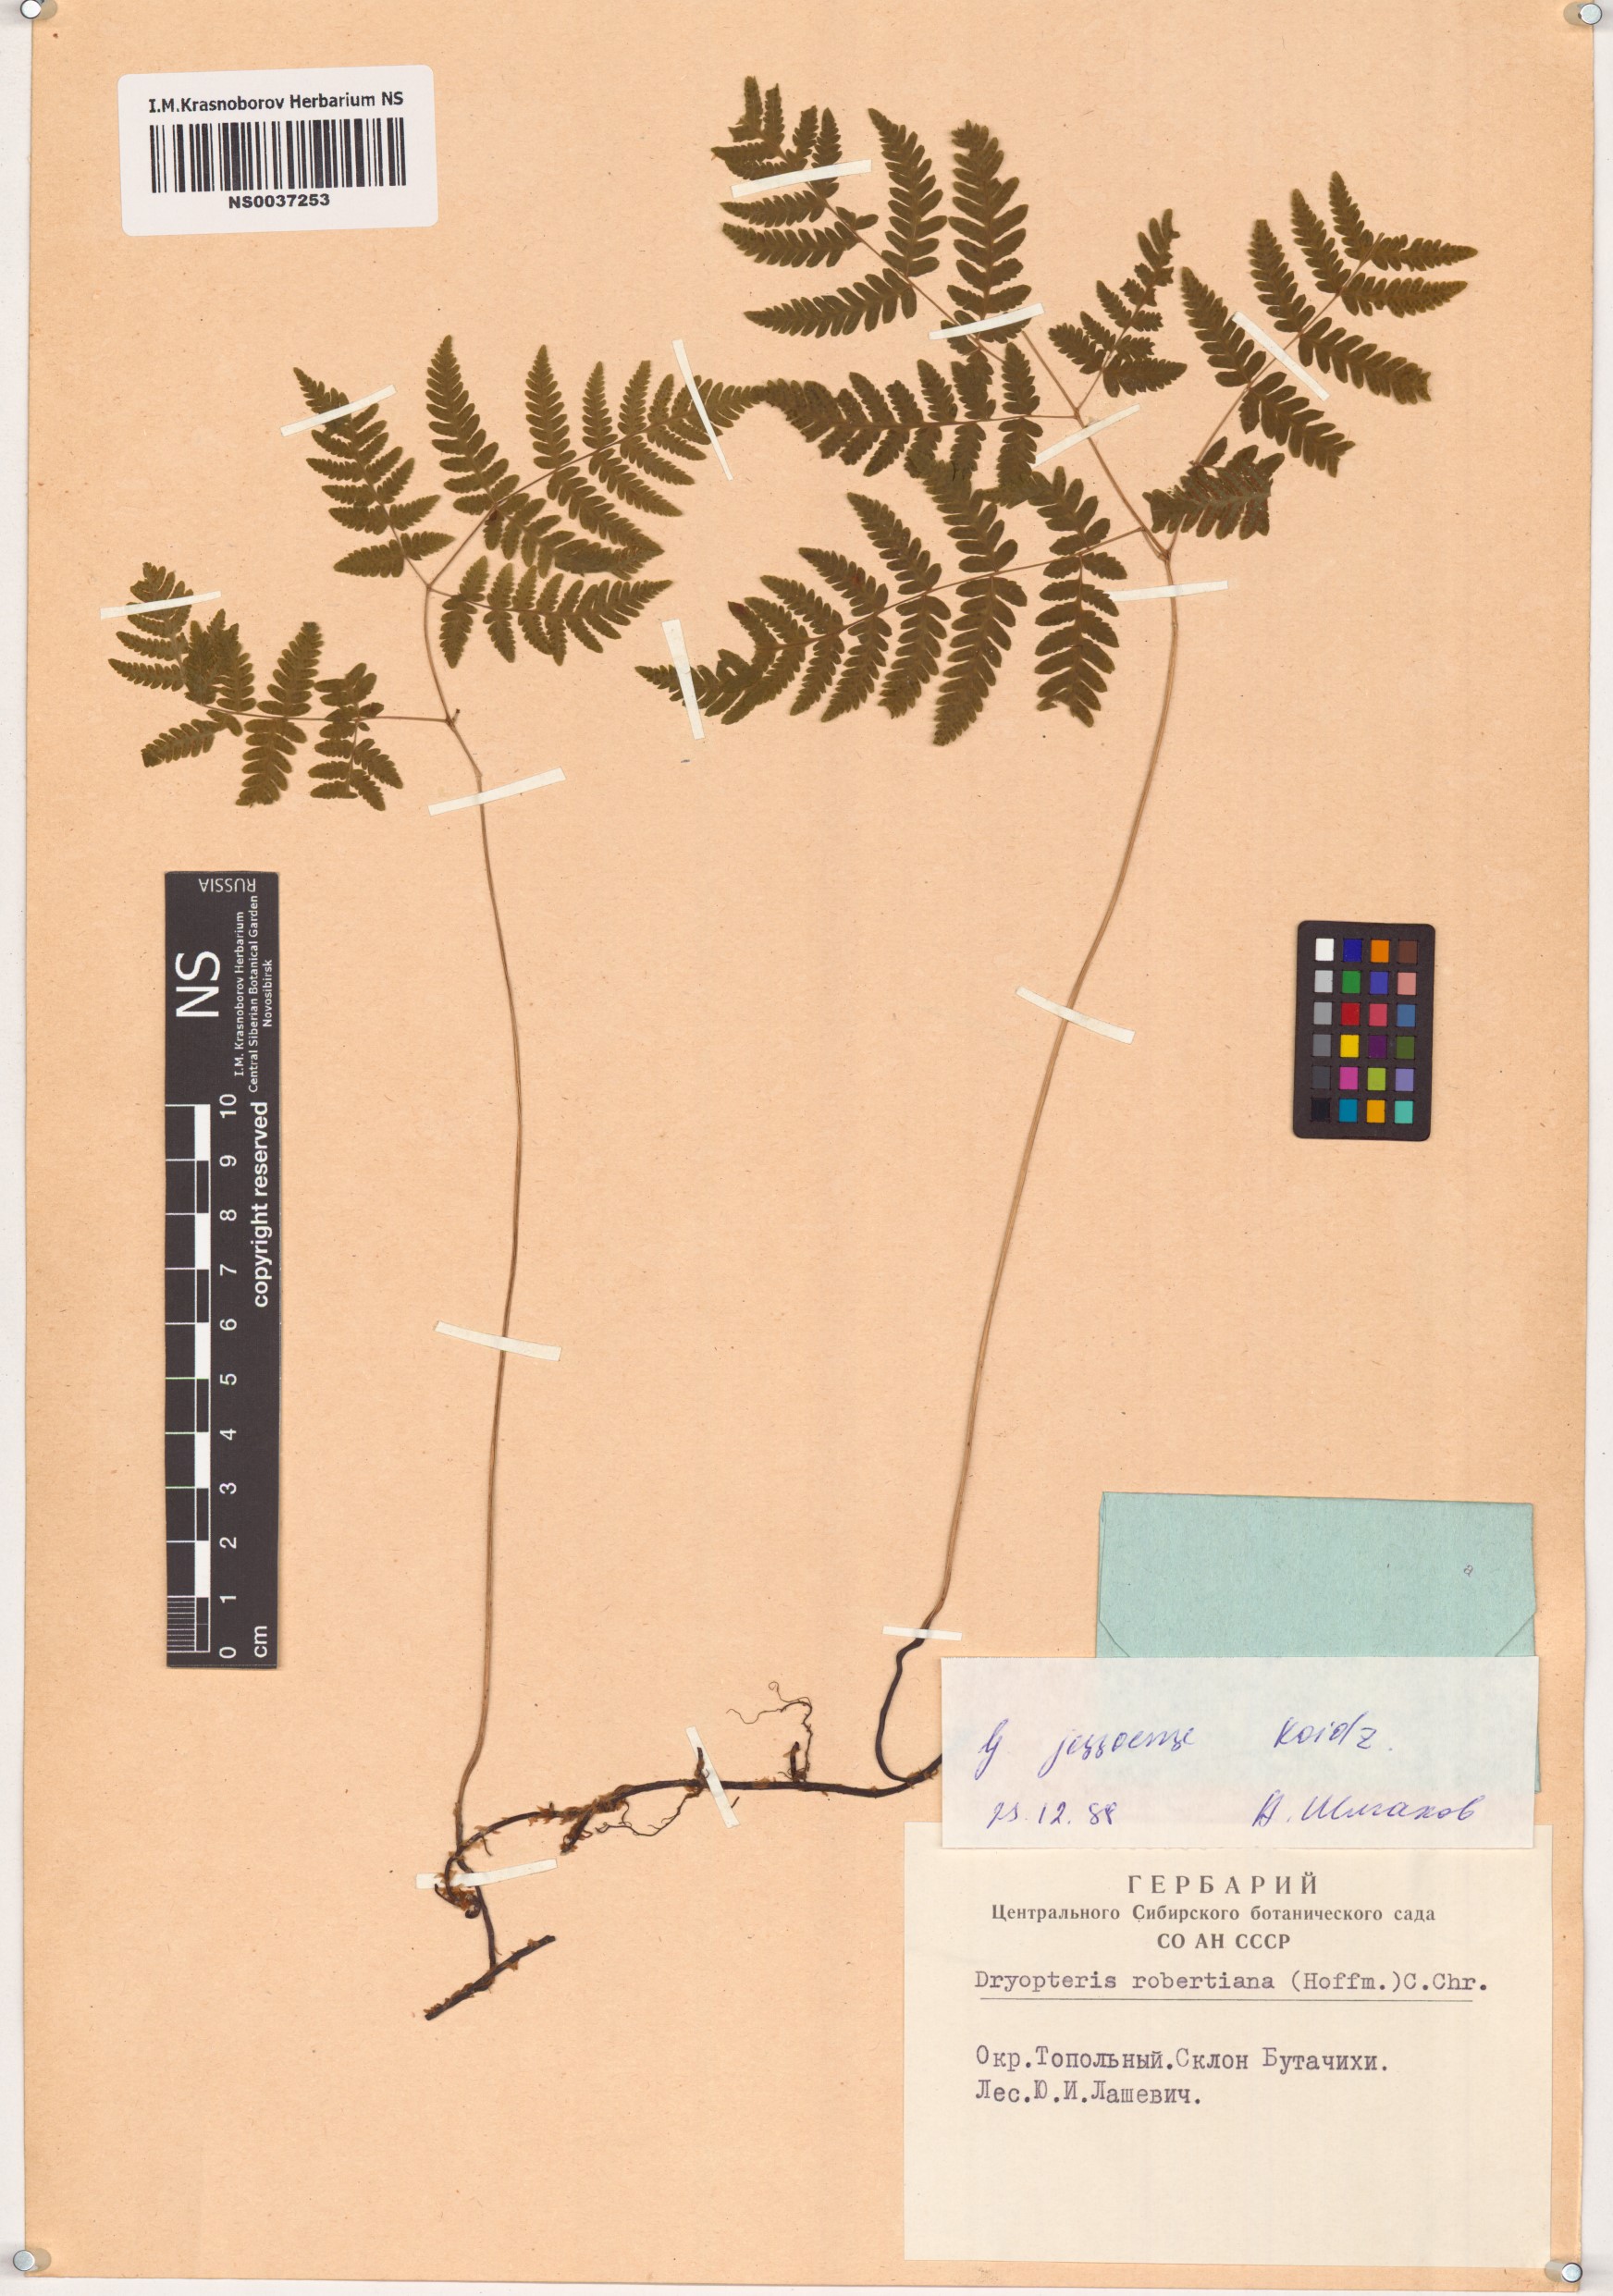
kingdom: Plantae
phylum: Tracheophyta
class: Polypodiopsida
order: Polypodiales
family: Cystopteridaceae
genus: Gymnocarpium
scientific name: Gymnocarpium jessoense
